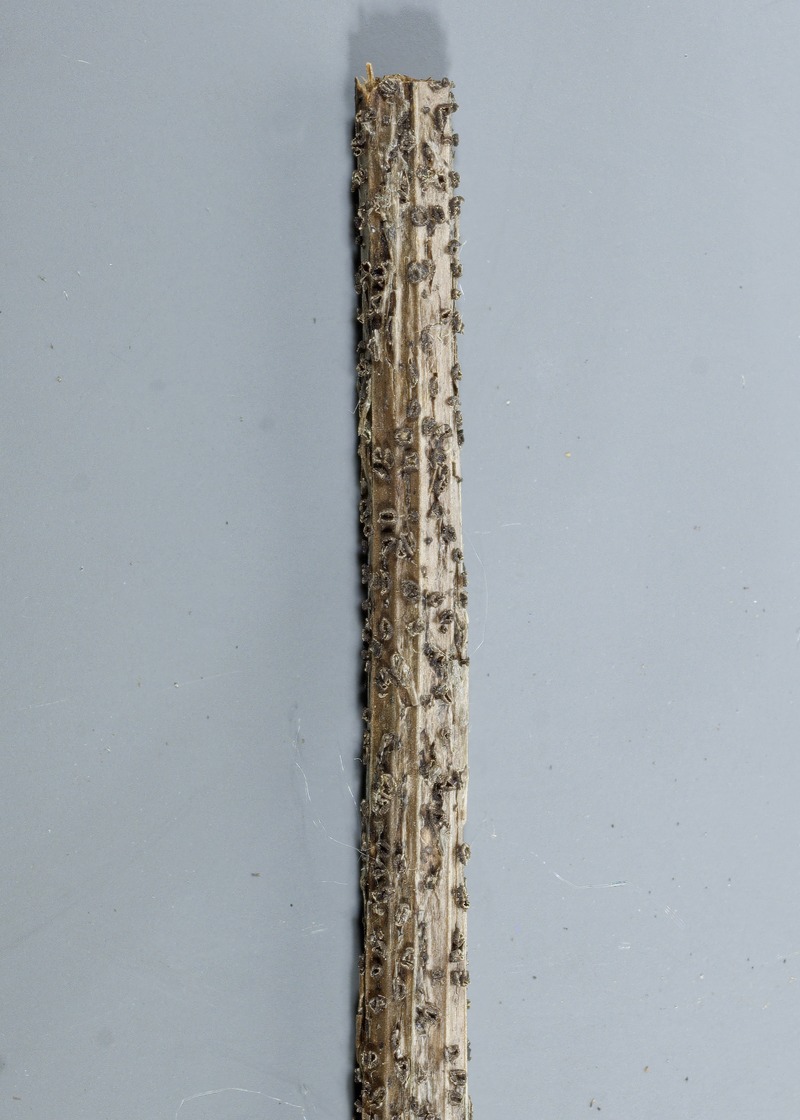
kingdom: Fungi
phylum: Ascomycota
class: Leotiomycetes
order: Helotiales
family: Ploettnerulaceae
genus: Pyrenopeziza
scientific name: Pyrenopeziza thalictri
